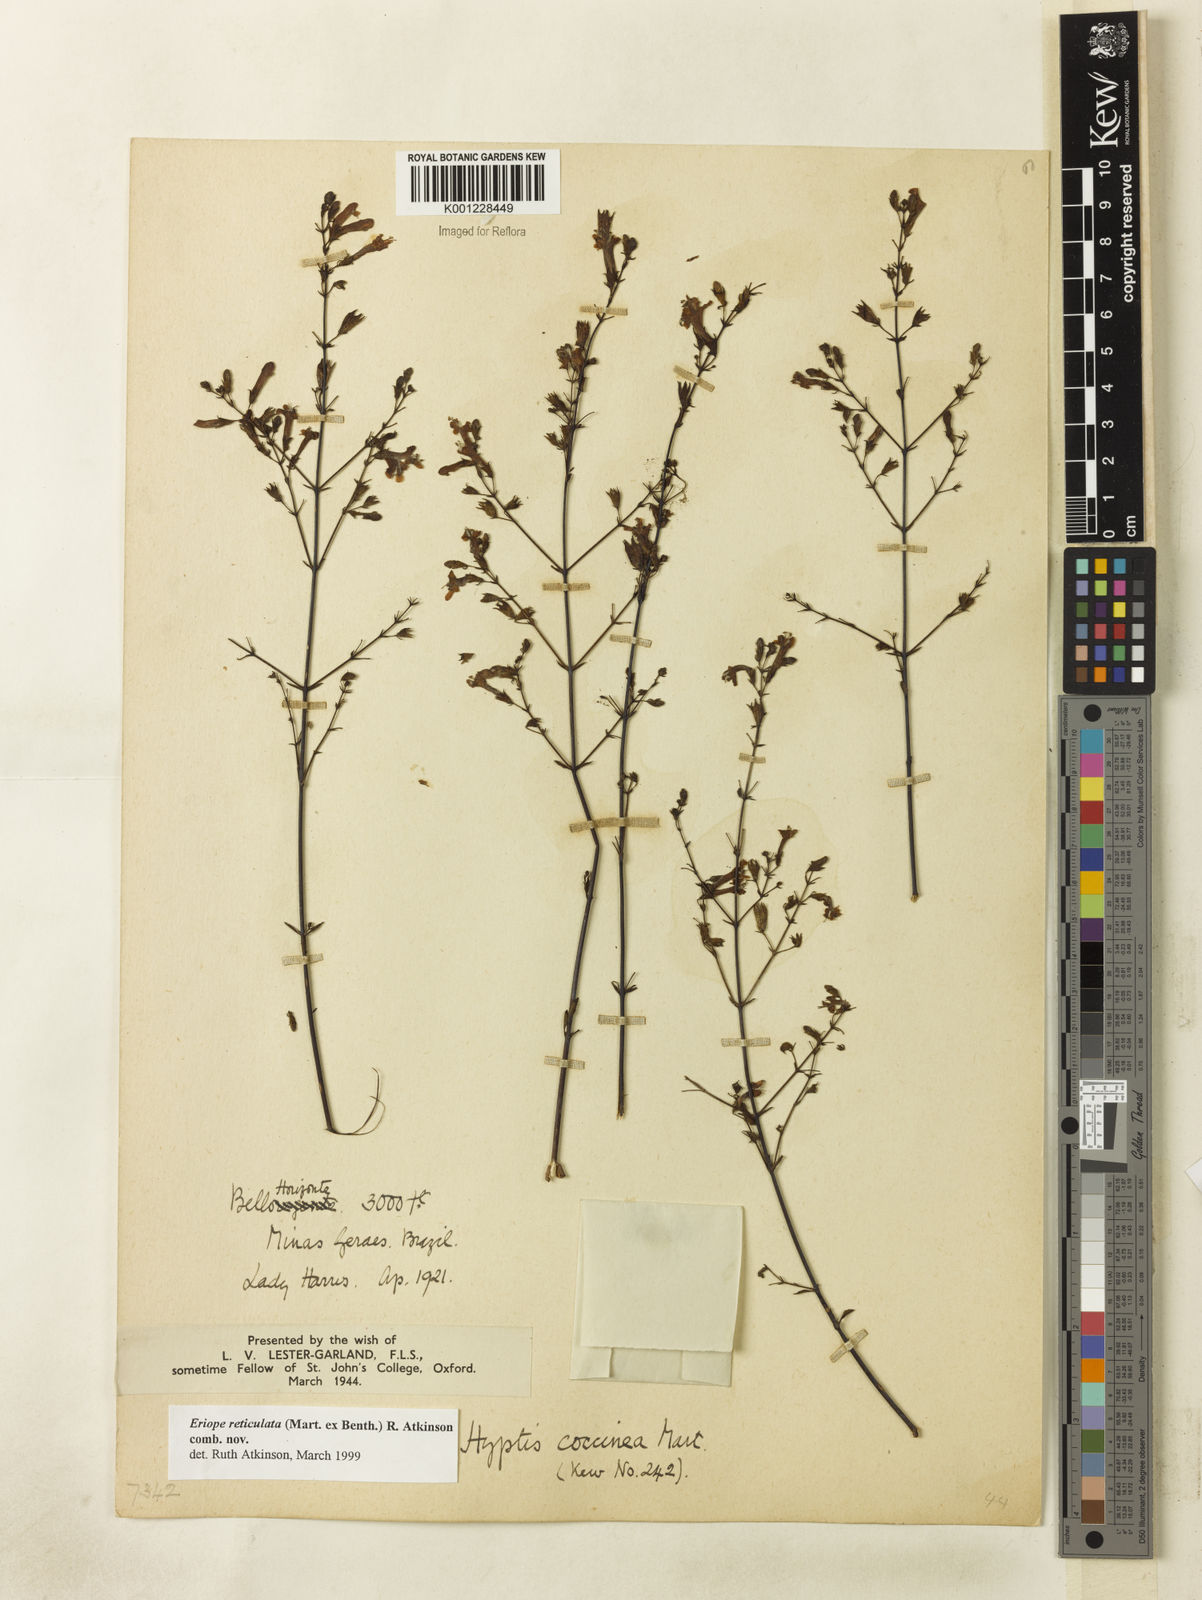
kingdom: Plantae
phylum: Tracheophyta
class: Magnoliopsida
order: Lamiales
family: Lamiaceae
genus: Hypenia
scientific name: Hypenia reticulata
